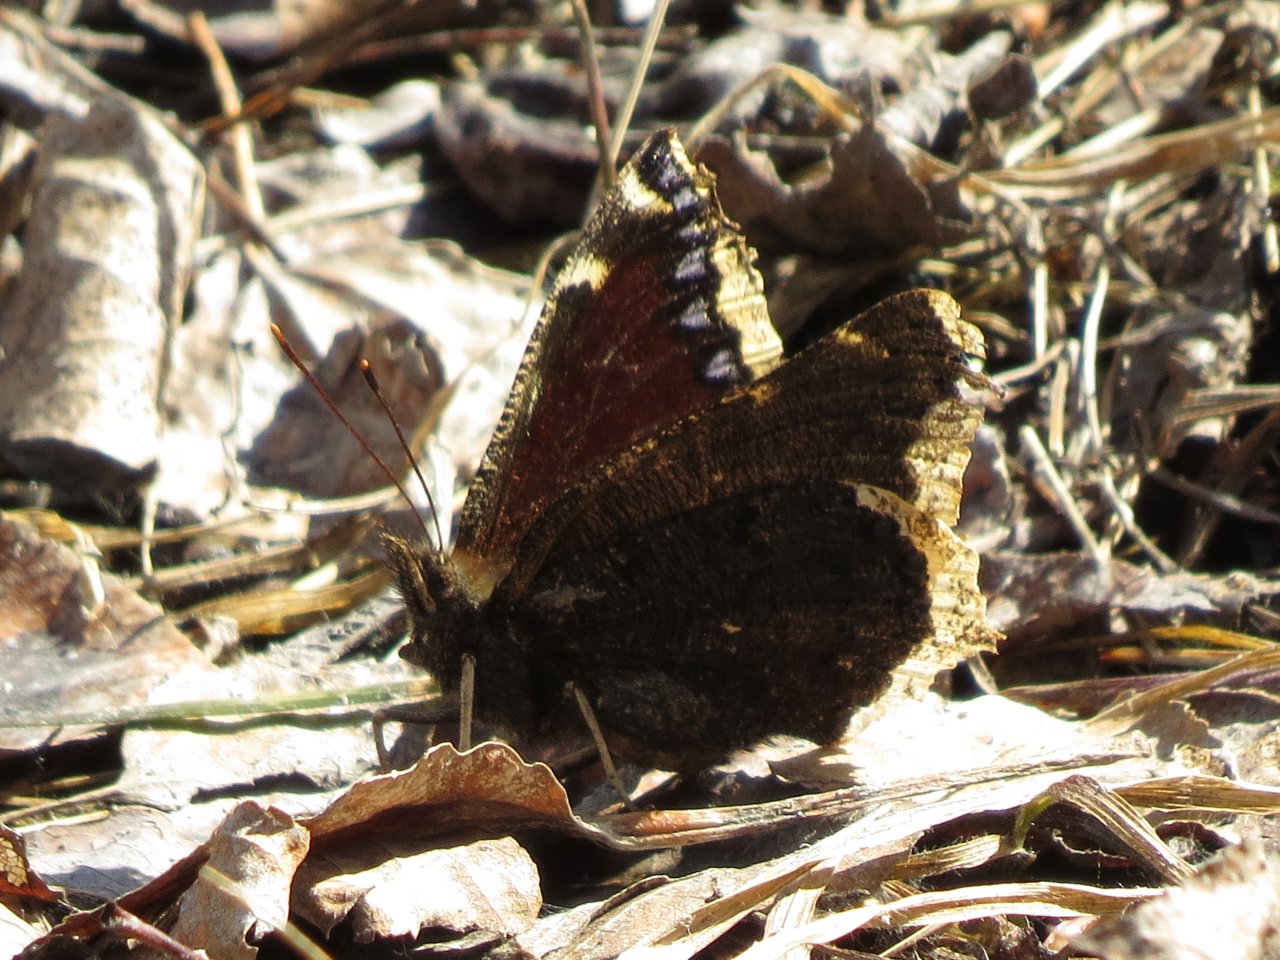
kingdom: Animalia
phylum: Arthropoda
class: Insecta
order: Lepidoptera
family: Nymphalidae
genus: Nymphalis
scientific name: Nymphalis antiopa
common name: Mourning Cloak
